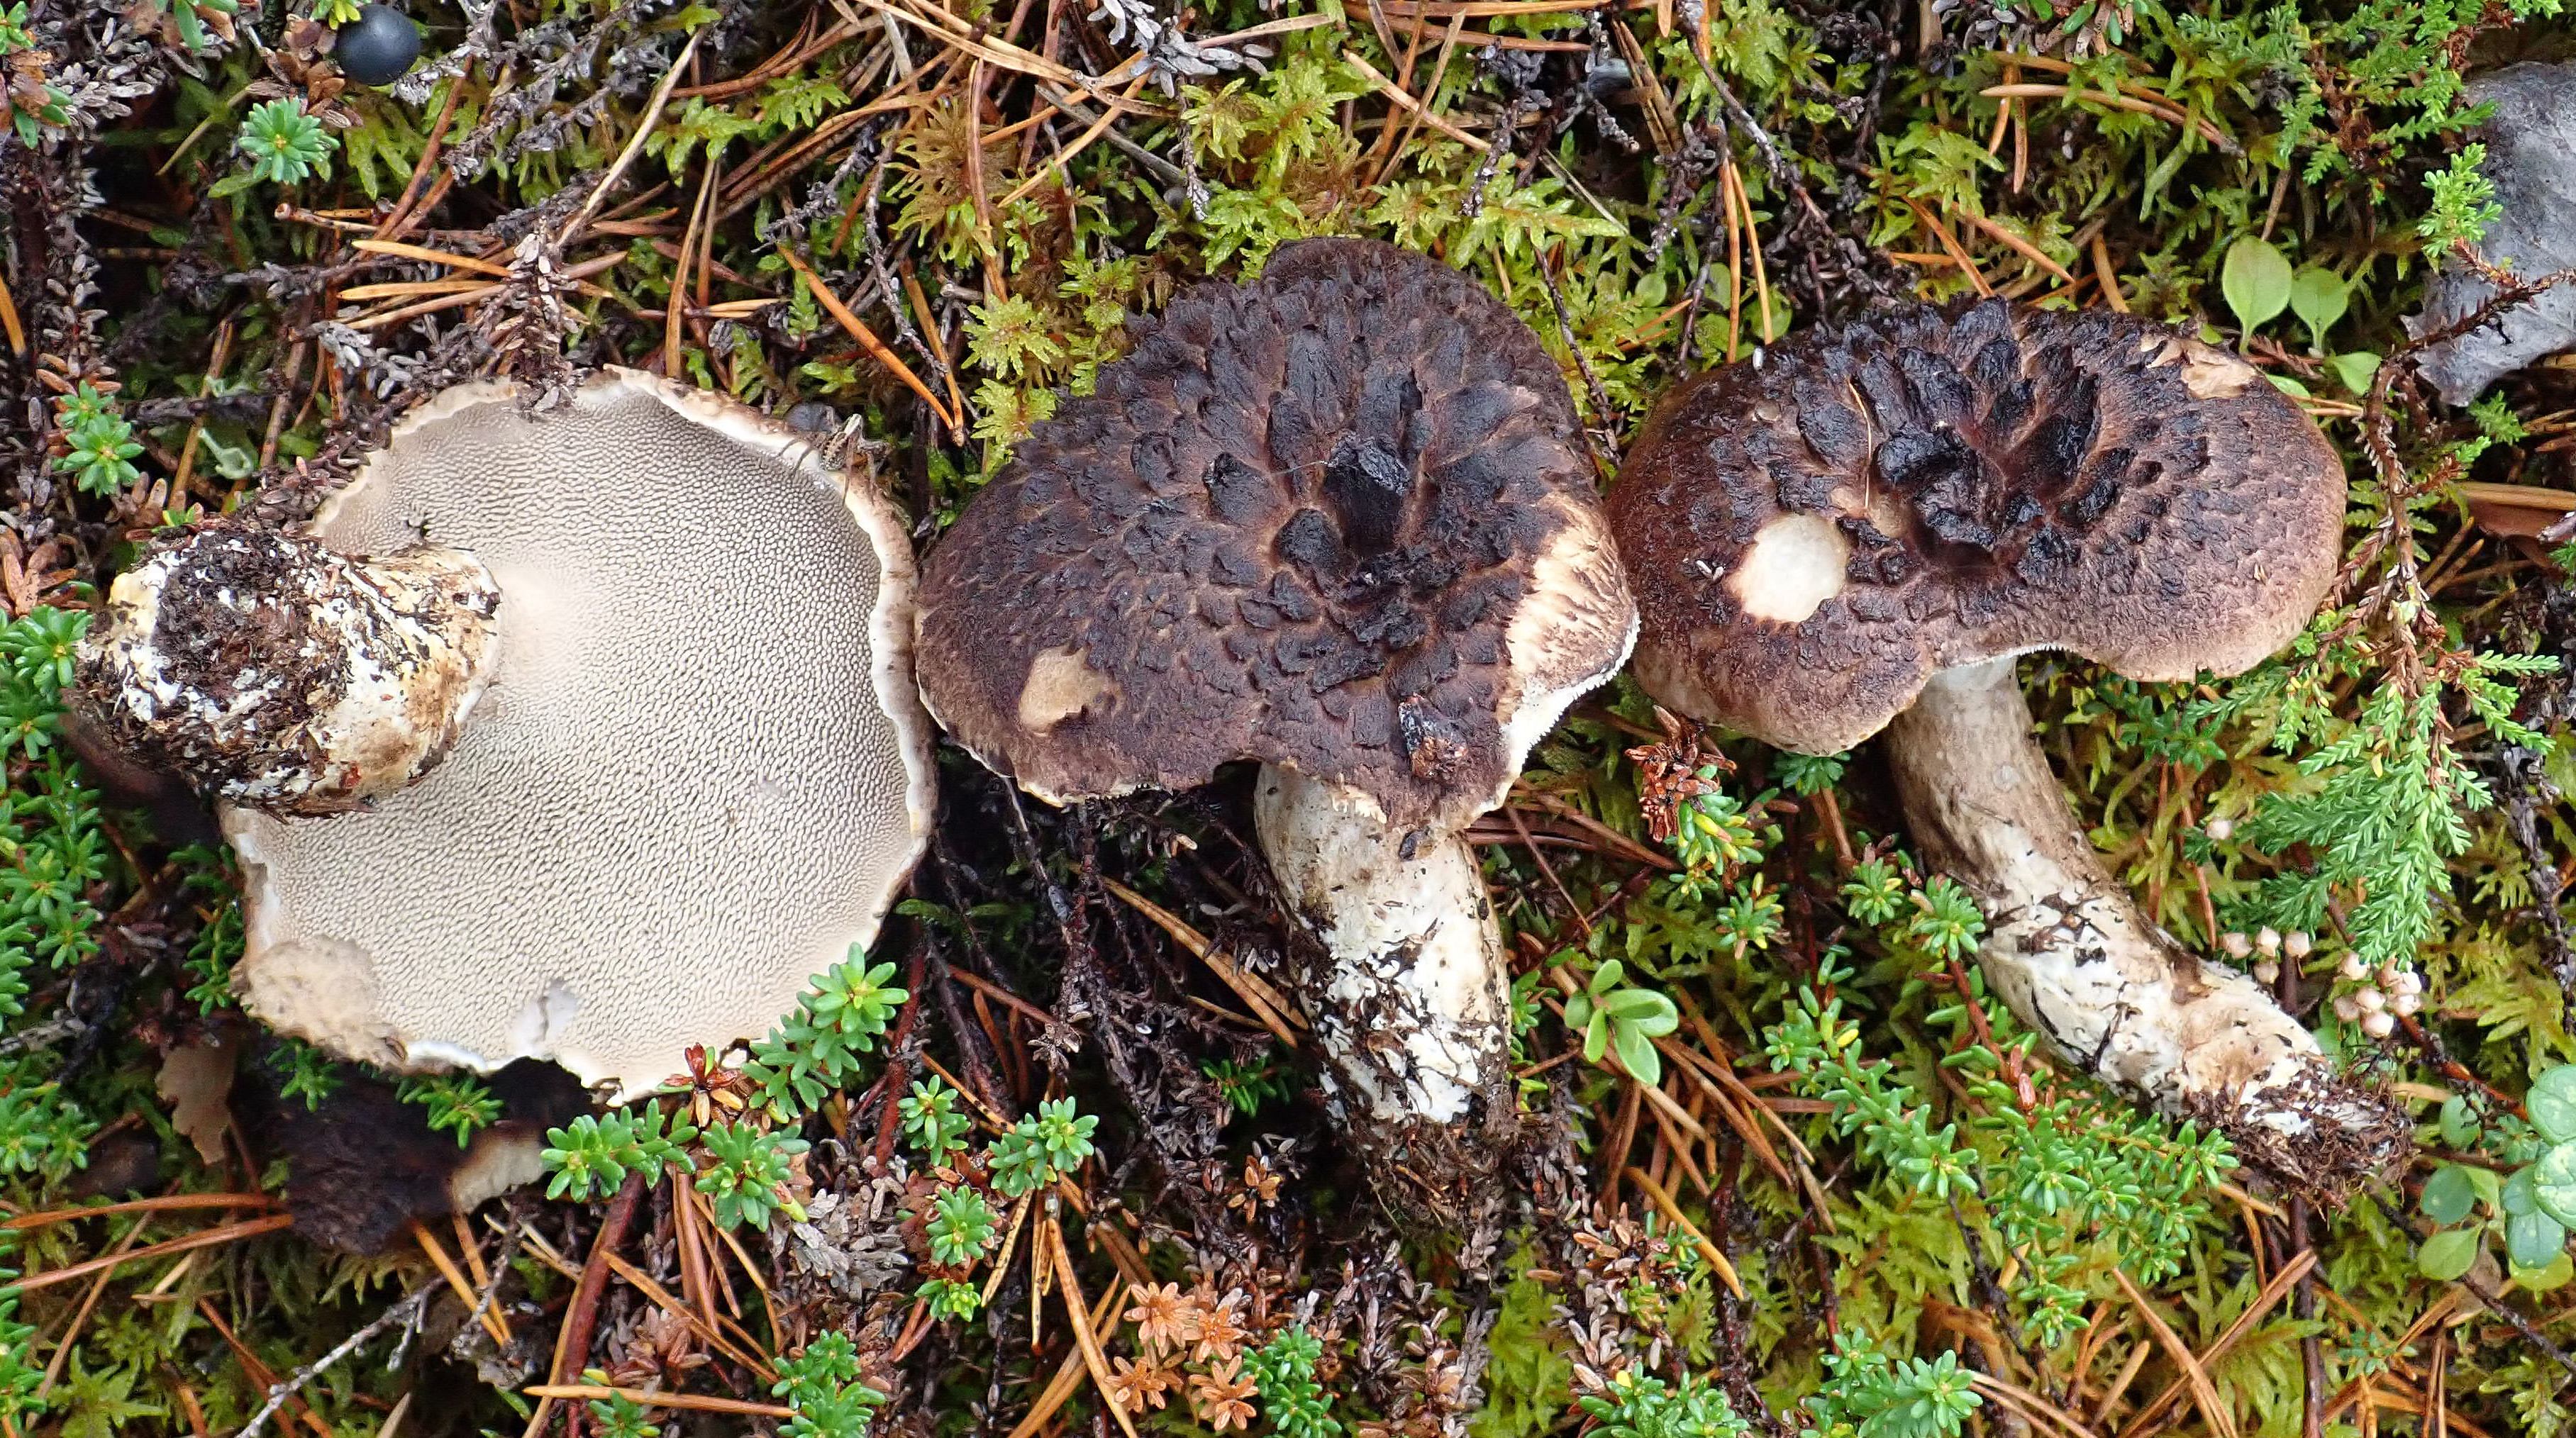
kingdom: Fungi
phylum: Basidiomycota
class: Agaricomycetes
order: Thelephorales
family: Bankeraceae
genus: Sarcodon
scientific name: Sarcodon squamosus
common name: Scaly tooth
